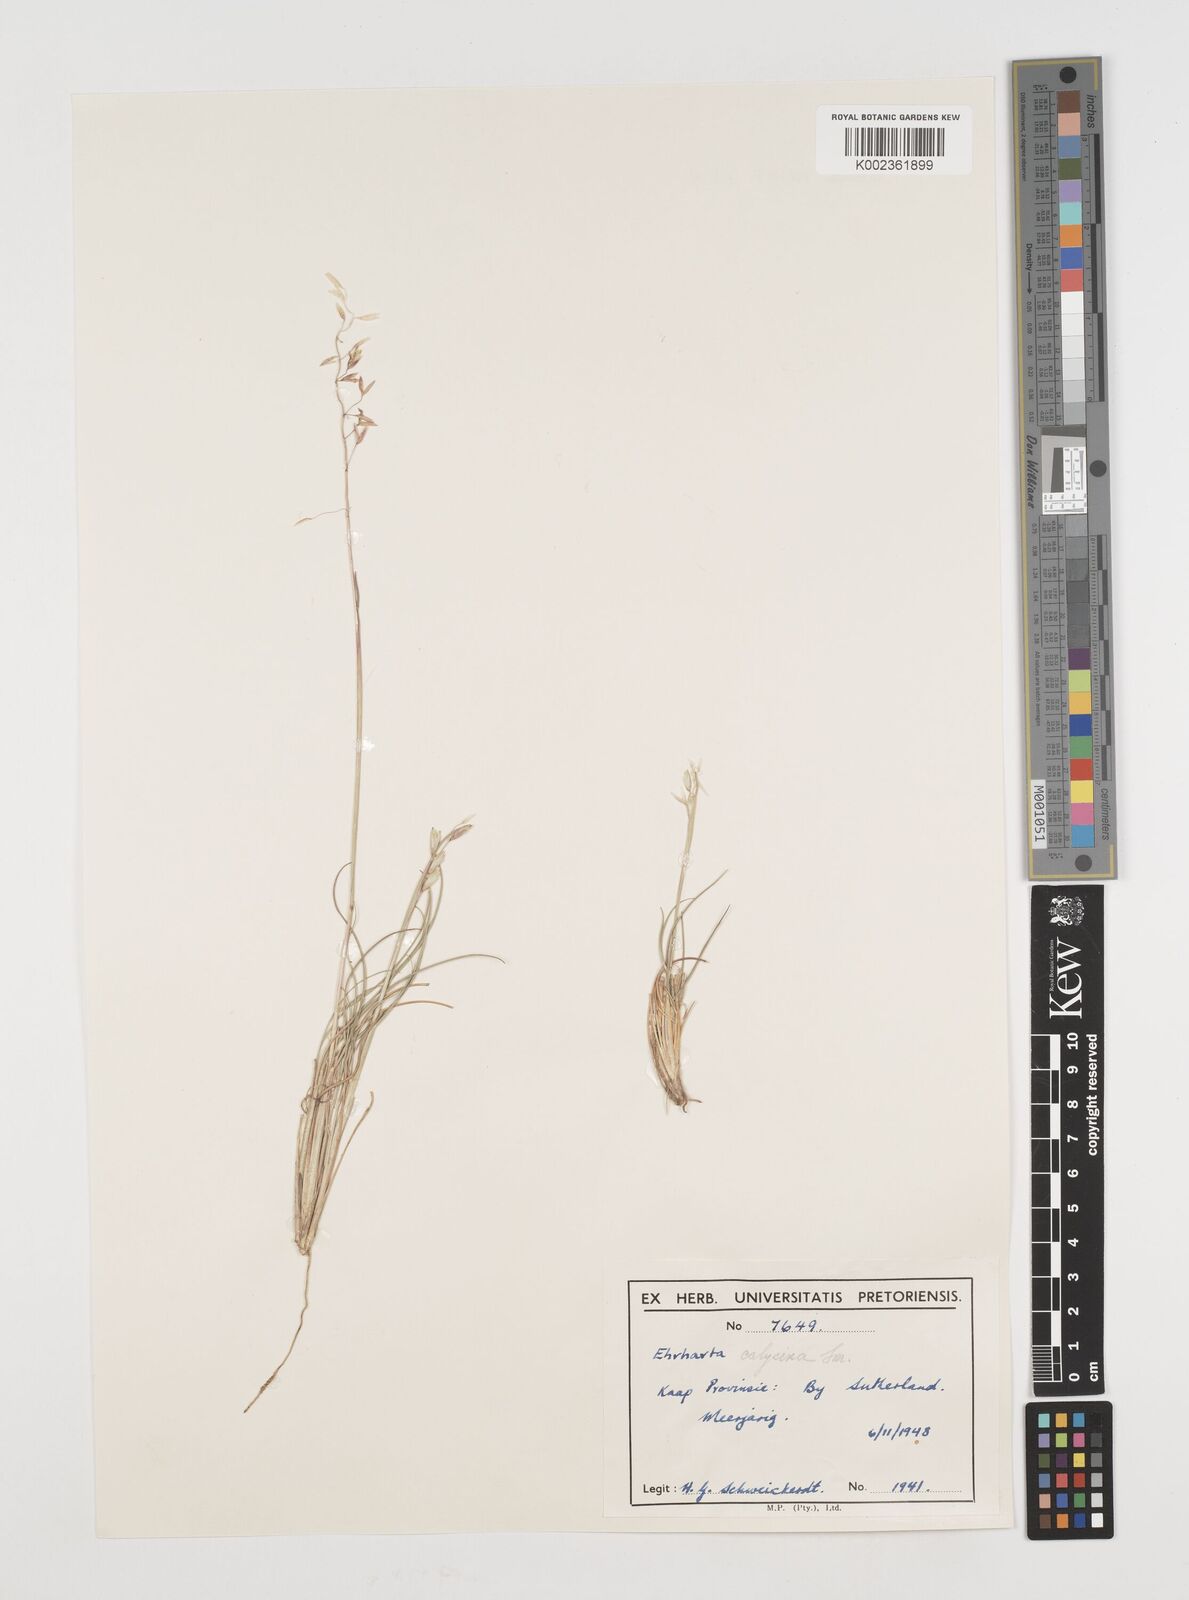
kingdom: Plantae
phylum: Tracheophyta
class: Liliopsida
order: Poales
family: Poaceae
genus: Ehrharta
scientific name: Ehrharta calycina
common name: Perennial veldtgrass
